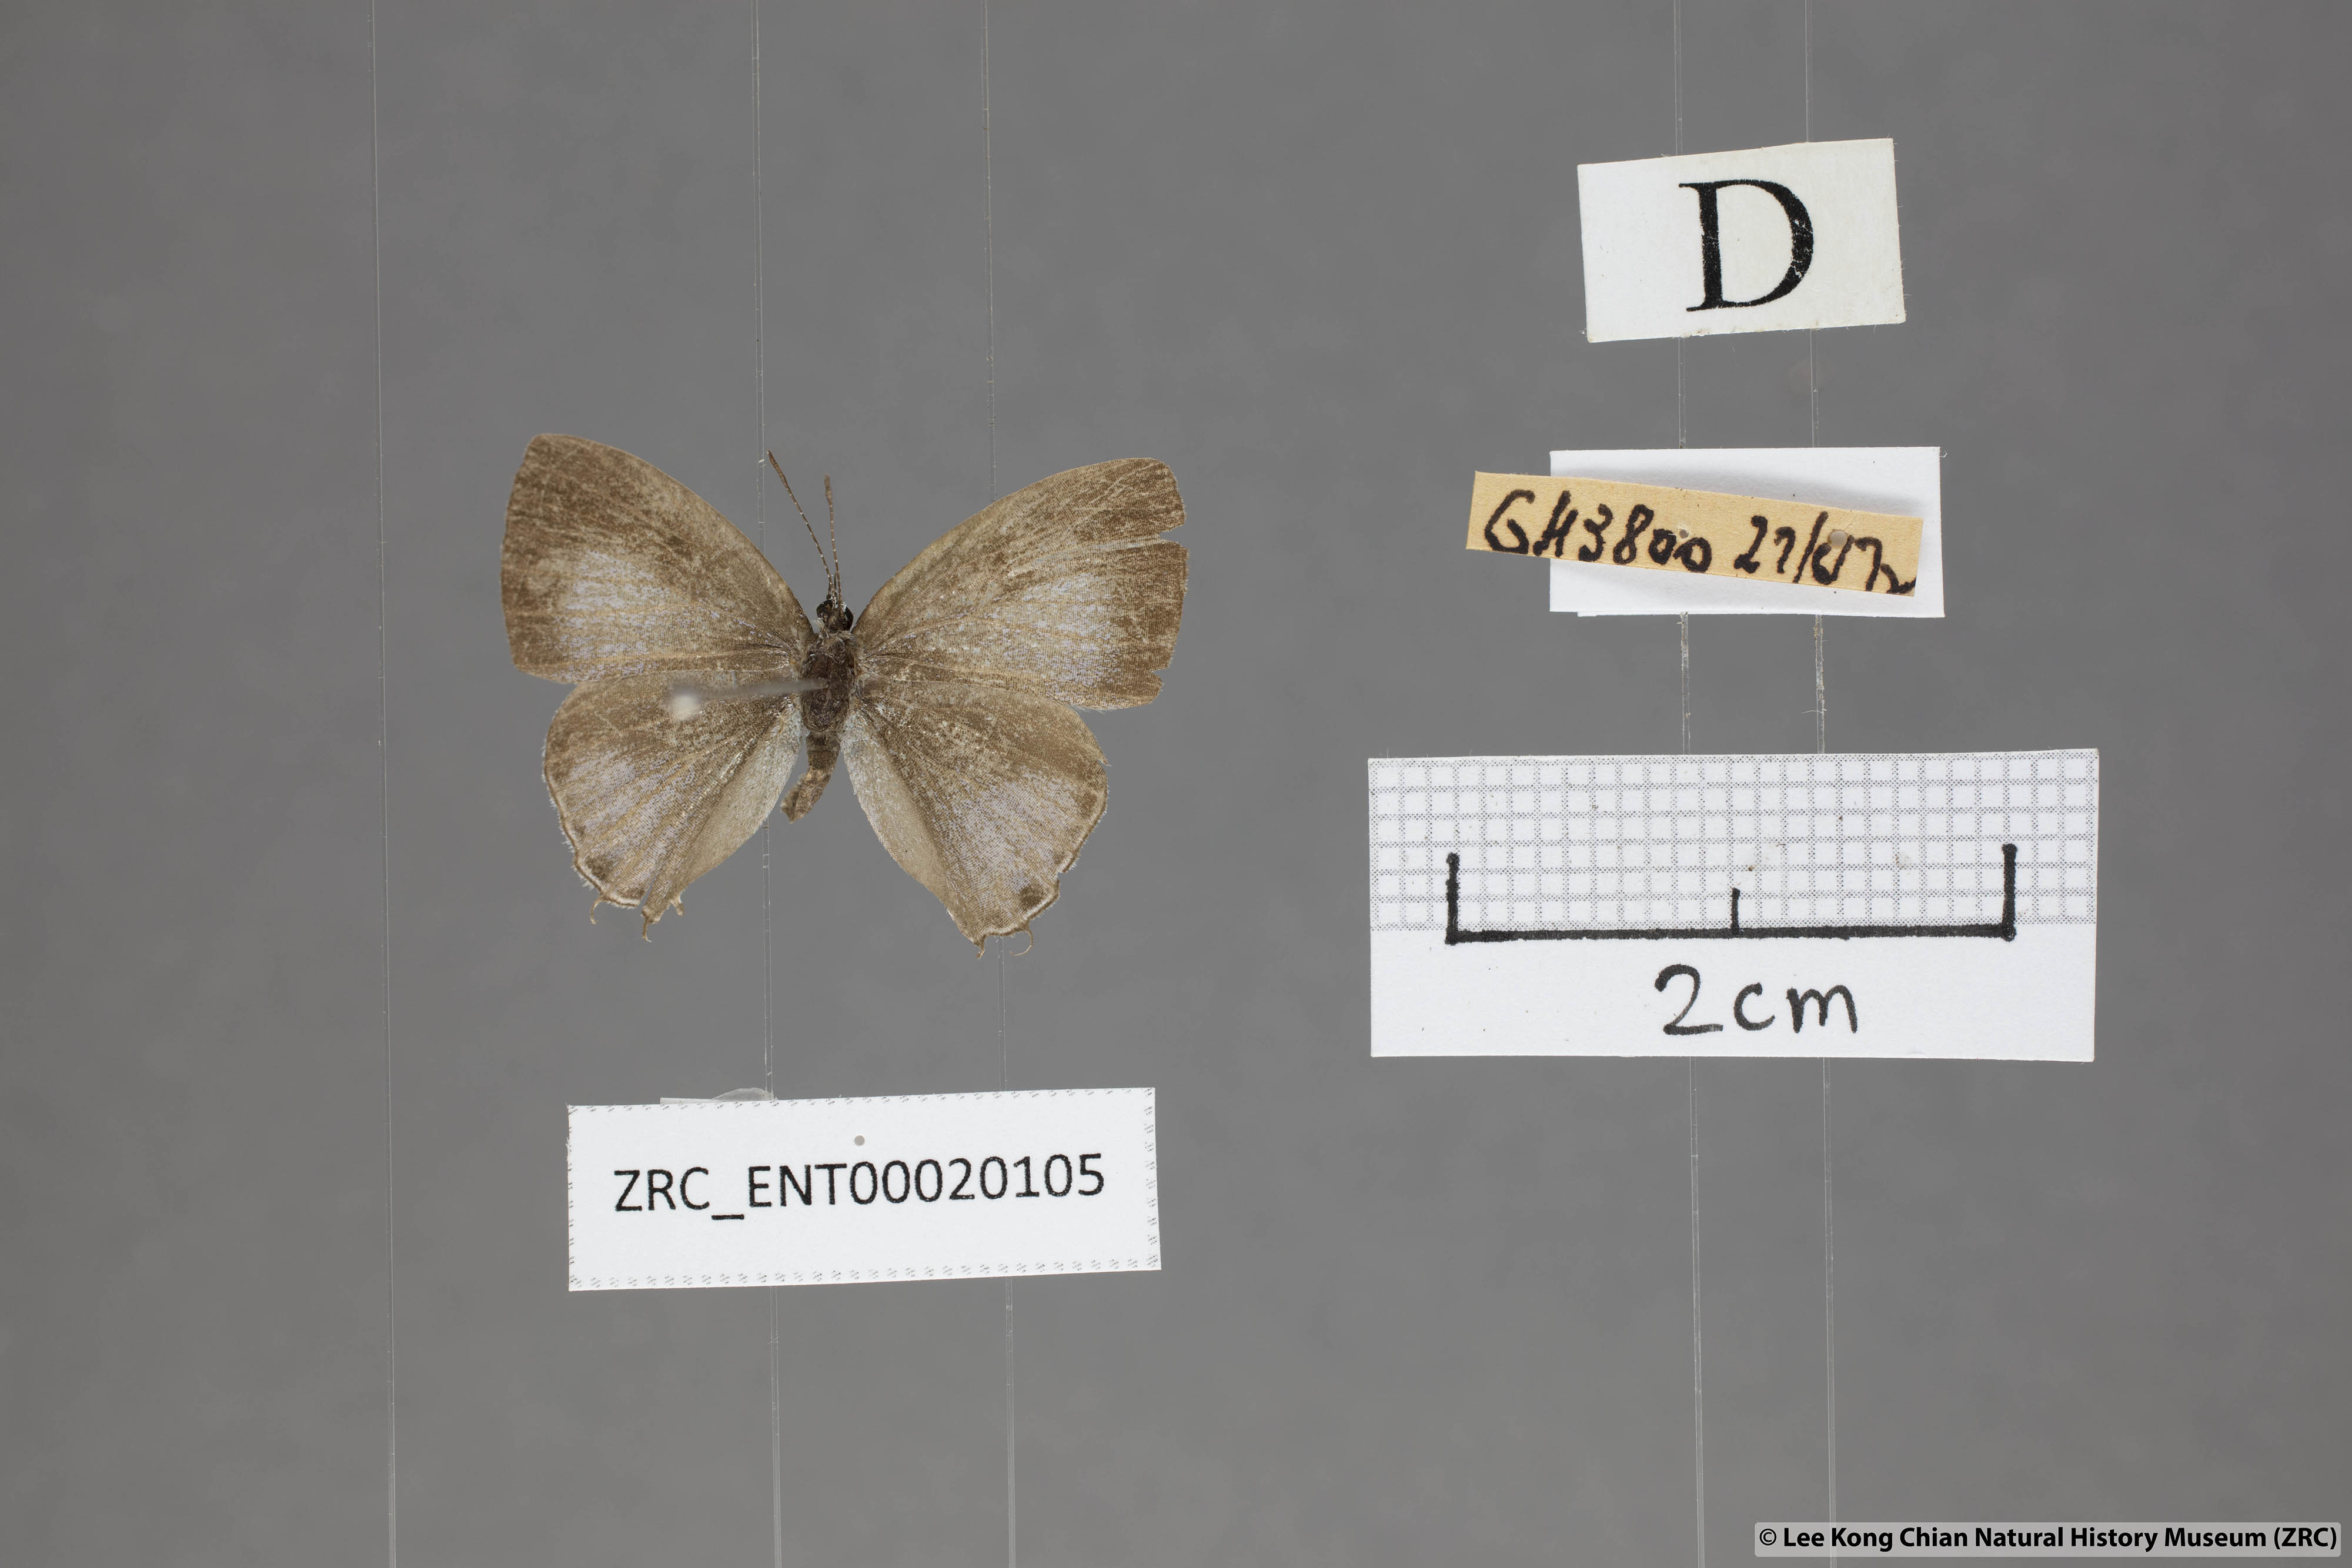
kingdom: Animalia
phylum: Arthropoda
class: Insecta
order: Lepidoptera
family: Lycaenidae
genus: Chliaria
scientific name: Chliaria pahanga
